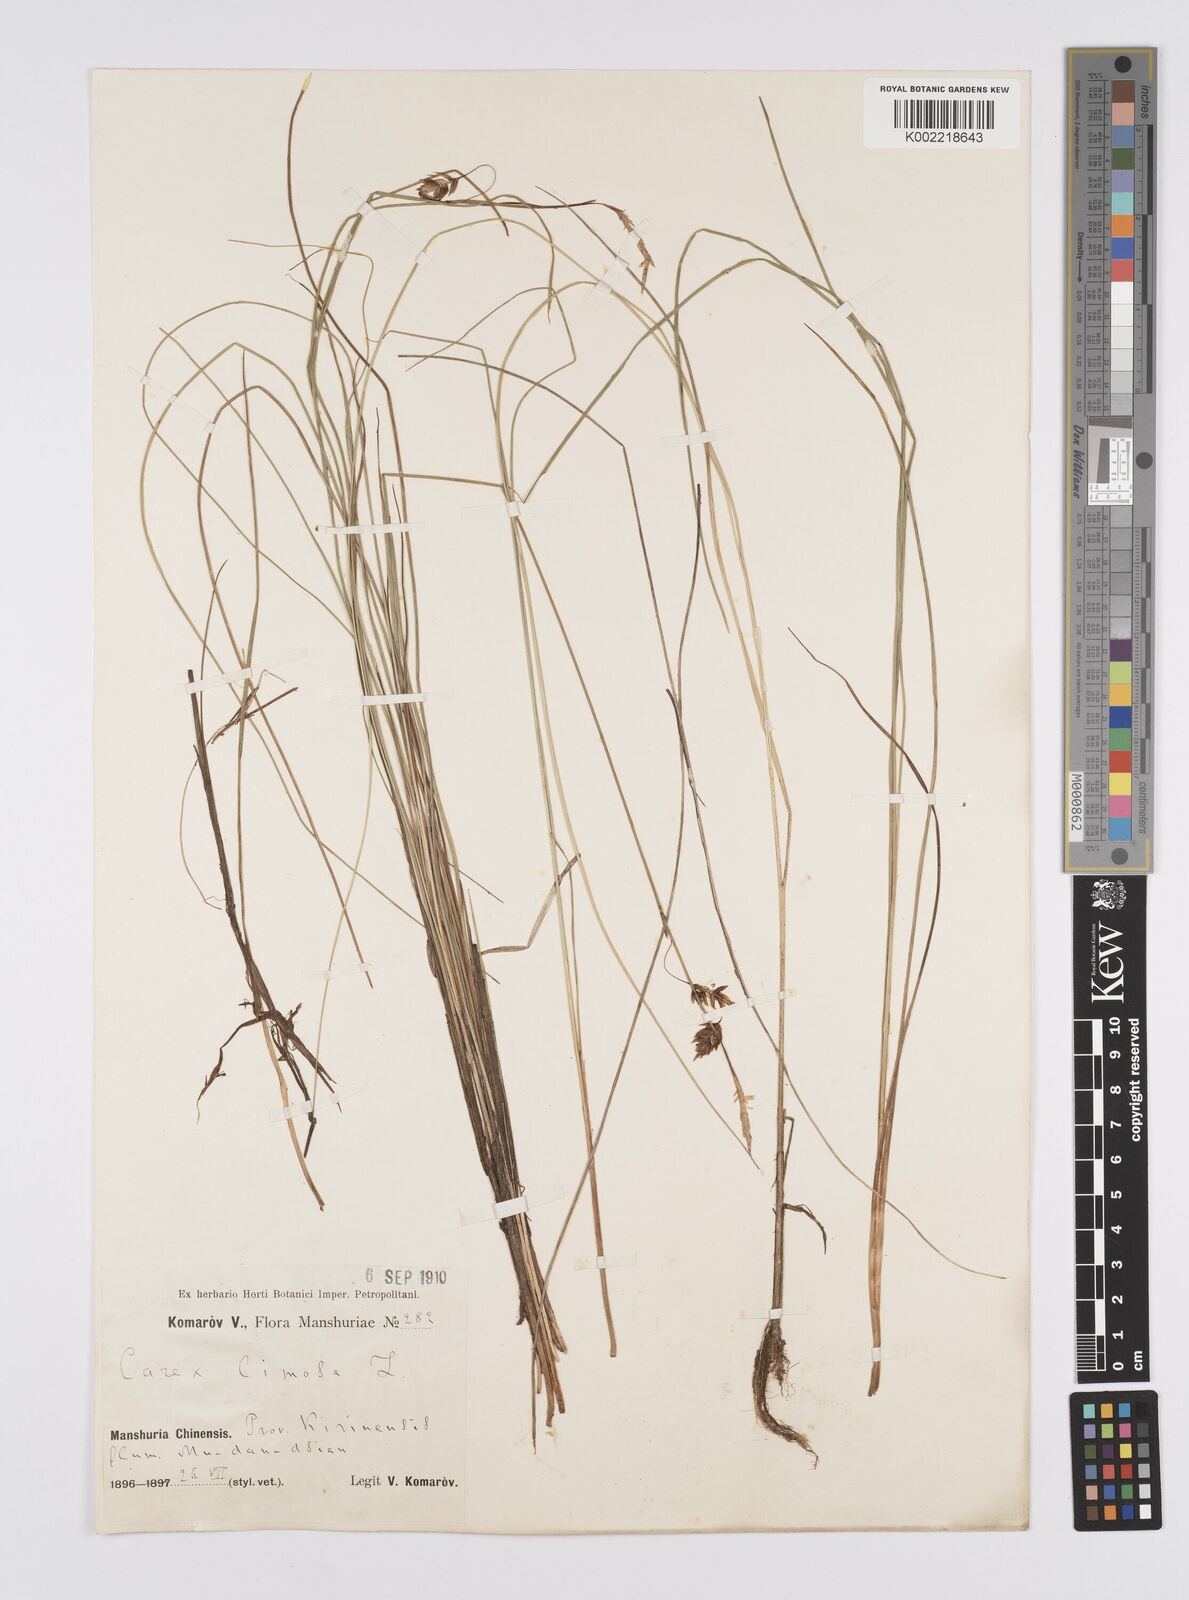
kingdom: Plantae
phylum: Tracheophyta
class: Liliopsida
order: Poales
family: Cyperaceae
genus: Carex
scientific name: Carex limosa
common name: Bog sedge
